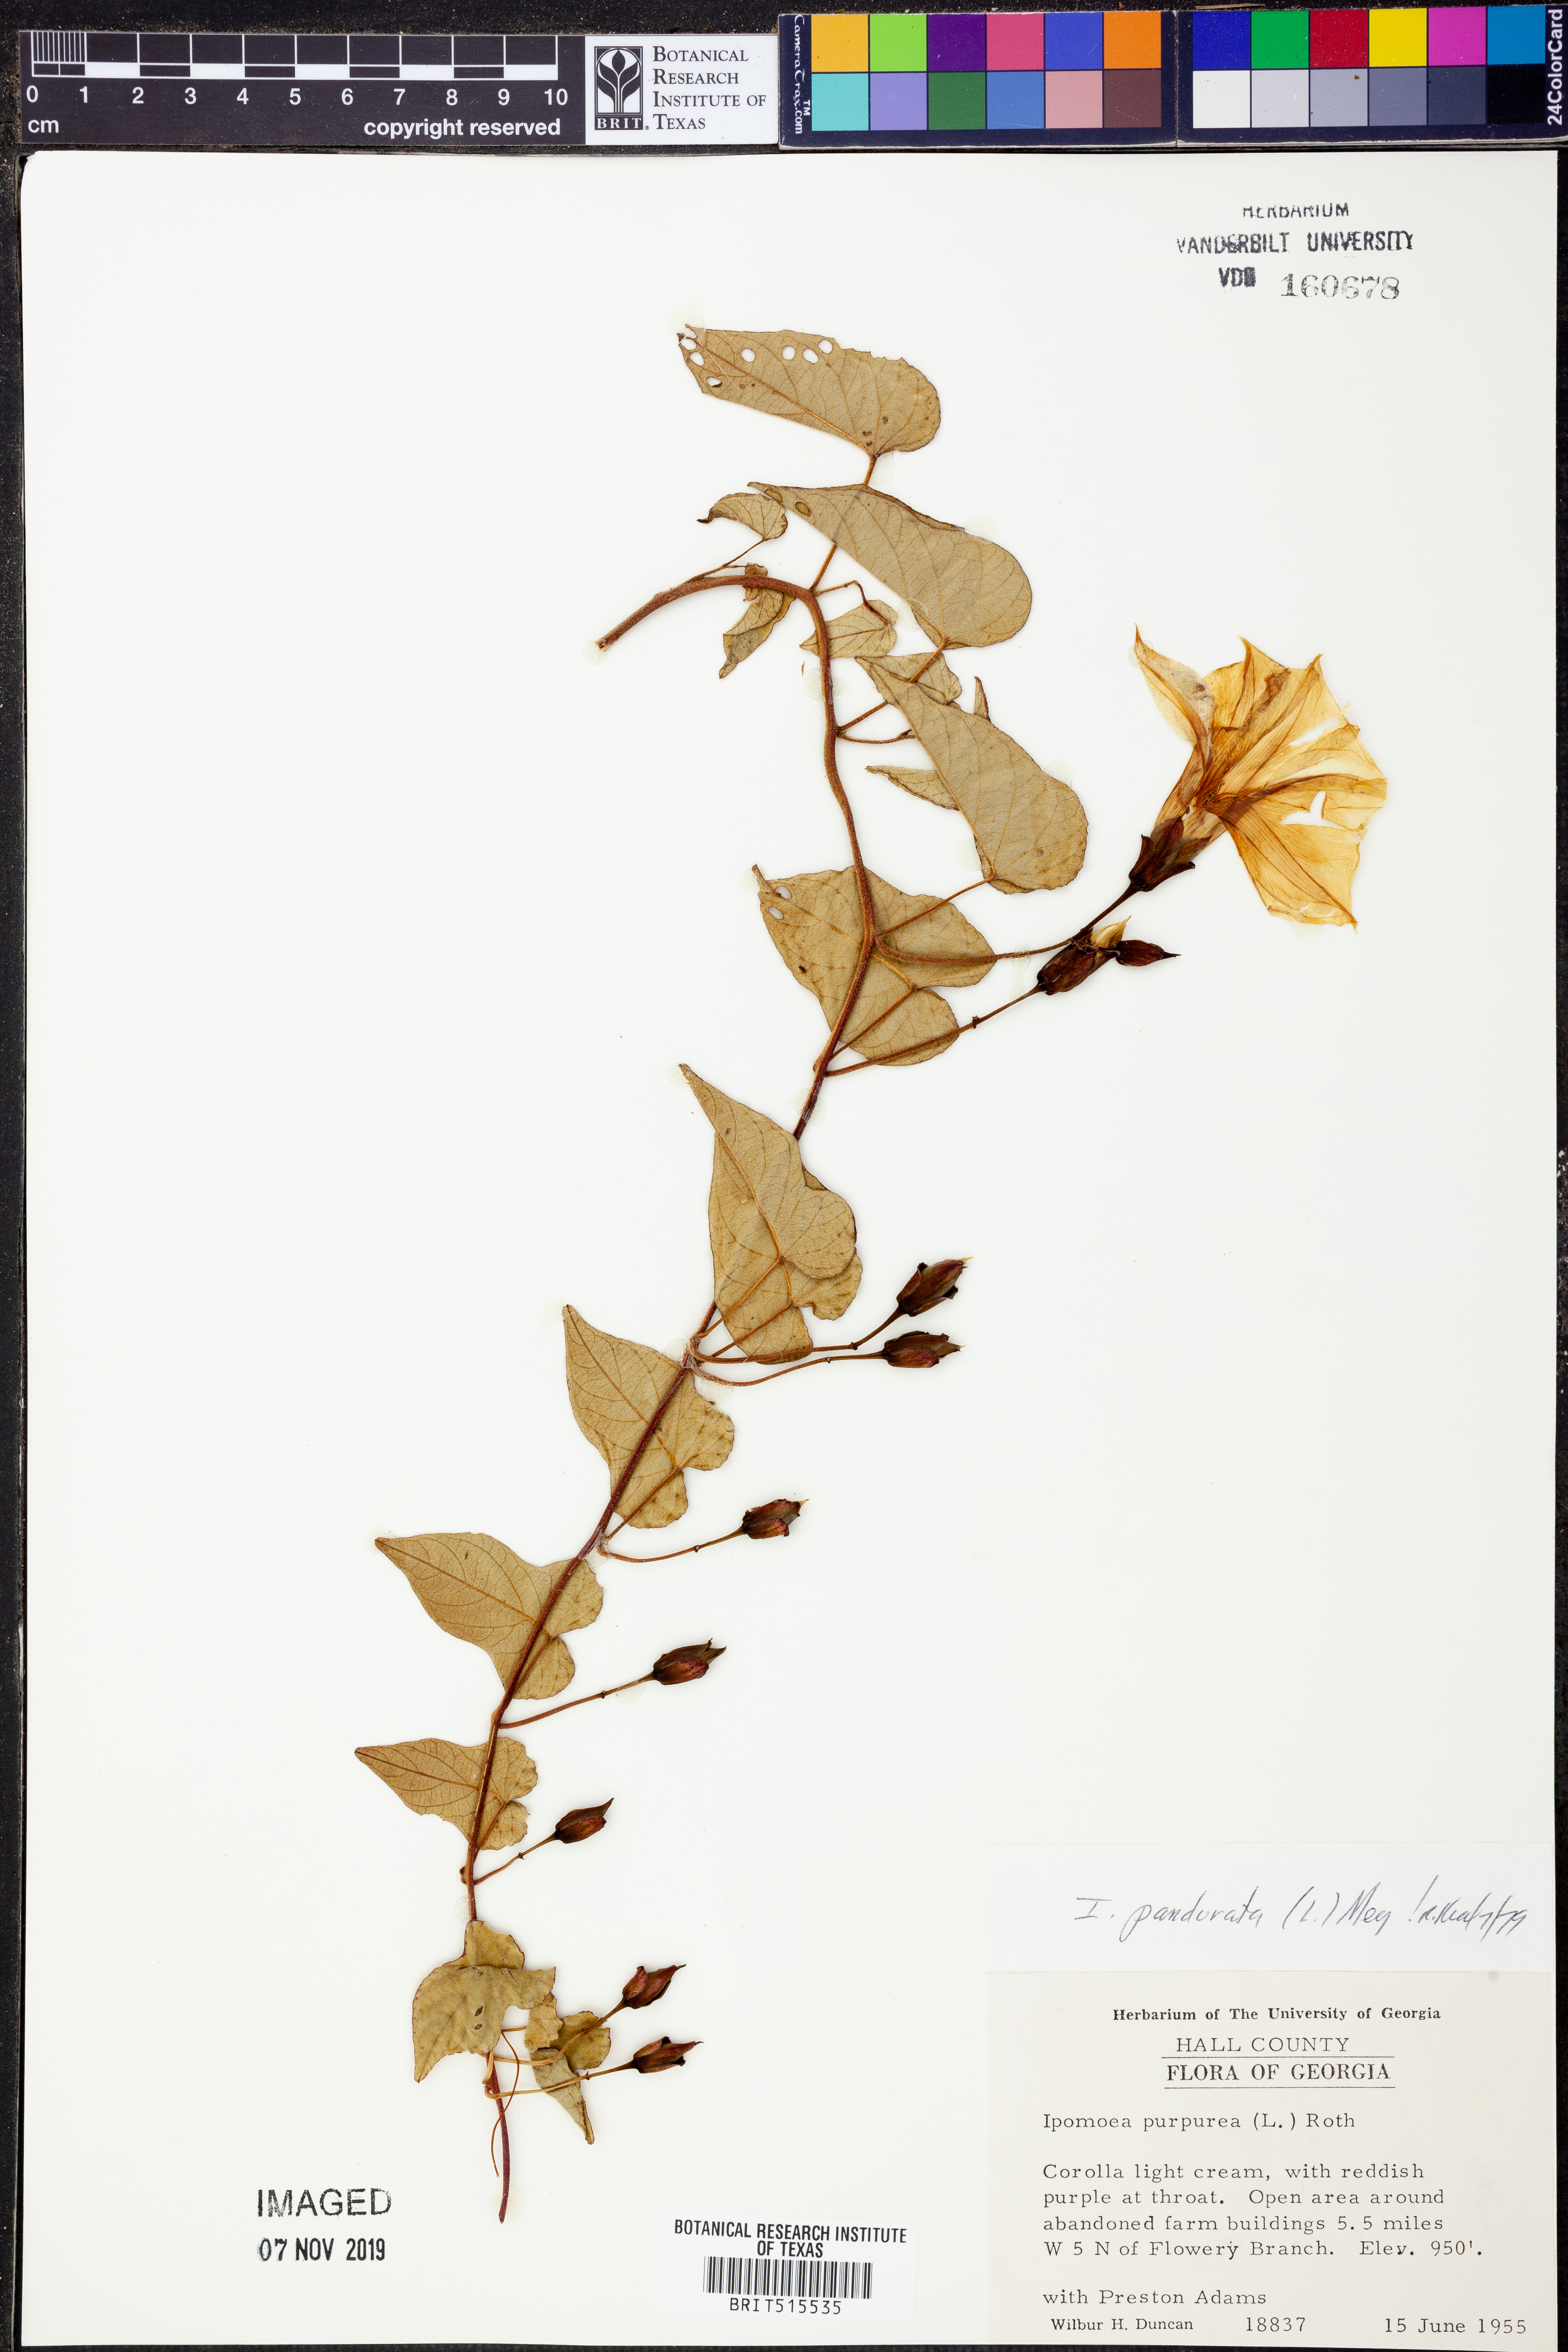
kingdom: Plantae
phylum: Tracheophyta
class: Magnoliopsida
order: Solanales
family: Convolvulaceae
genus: Ipomoea
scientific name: Ipomoea pandurata
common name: Man-of-the-earth
